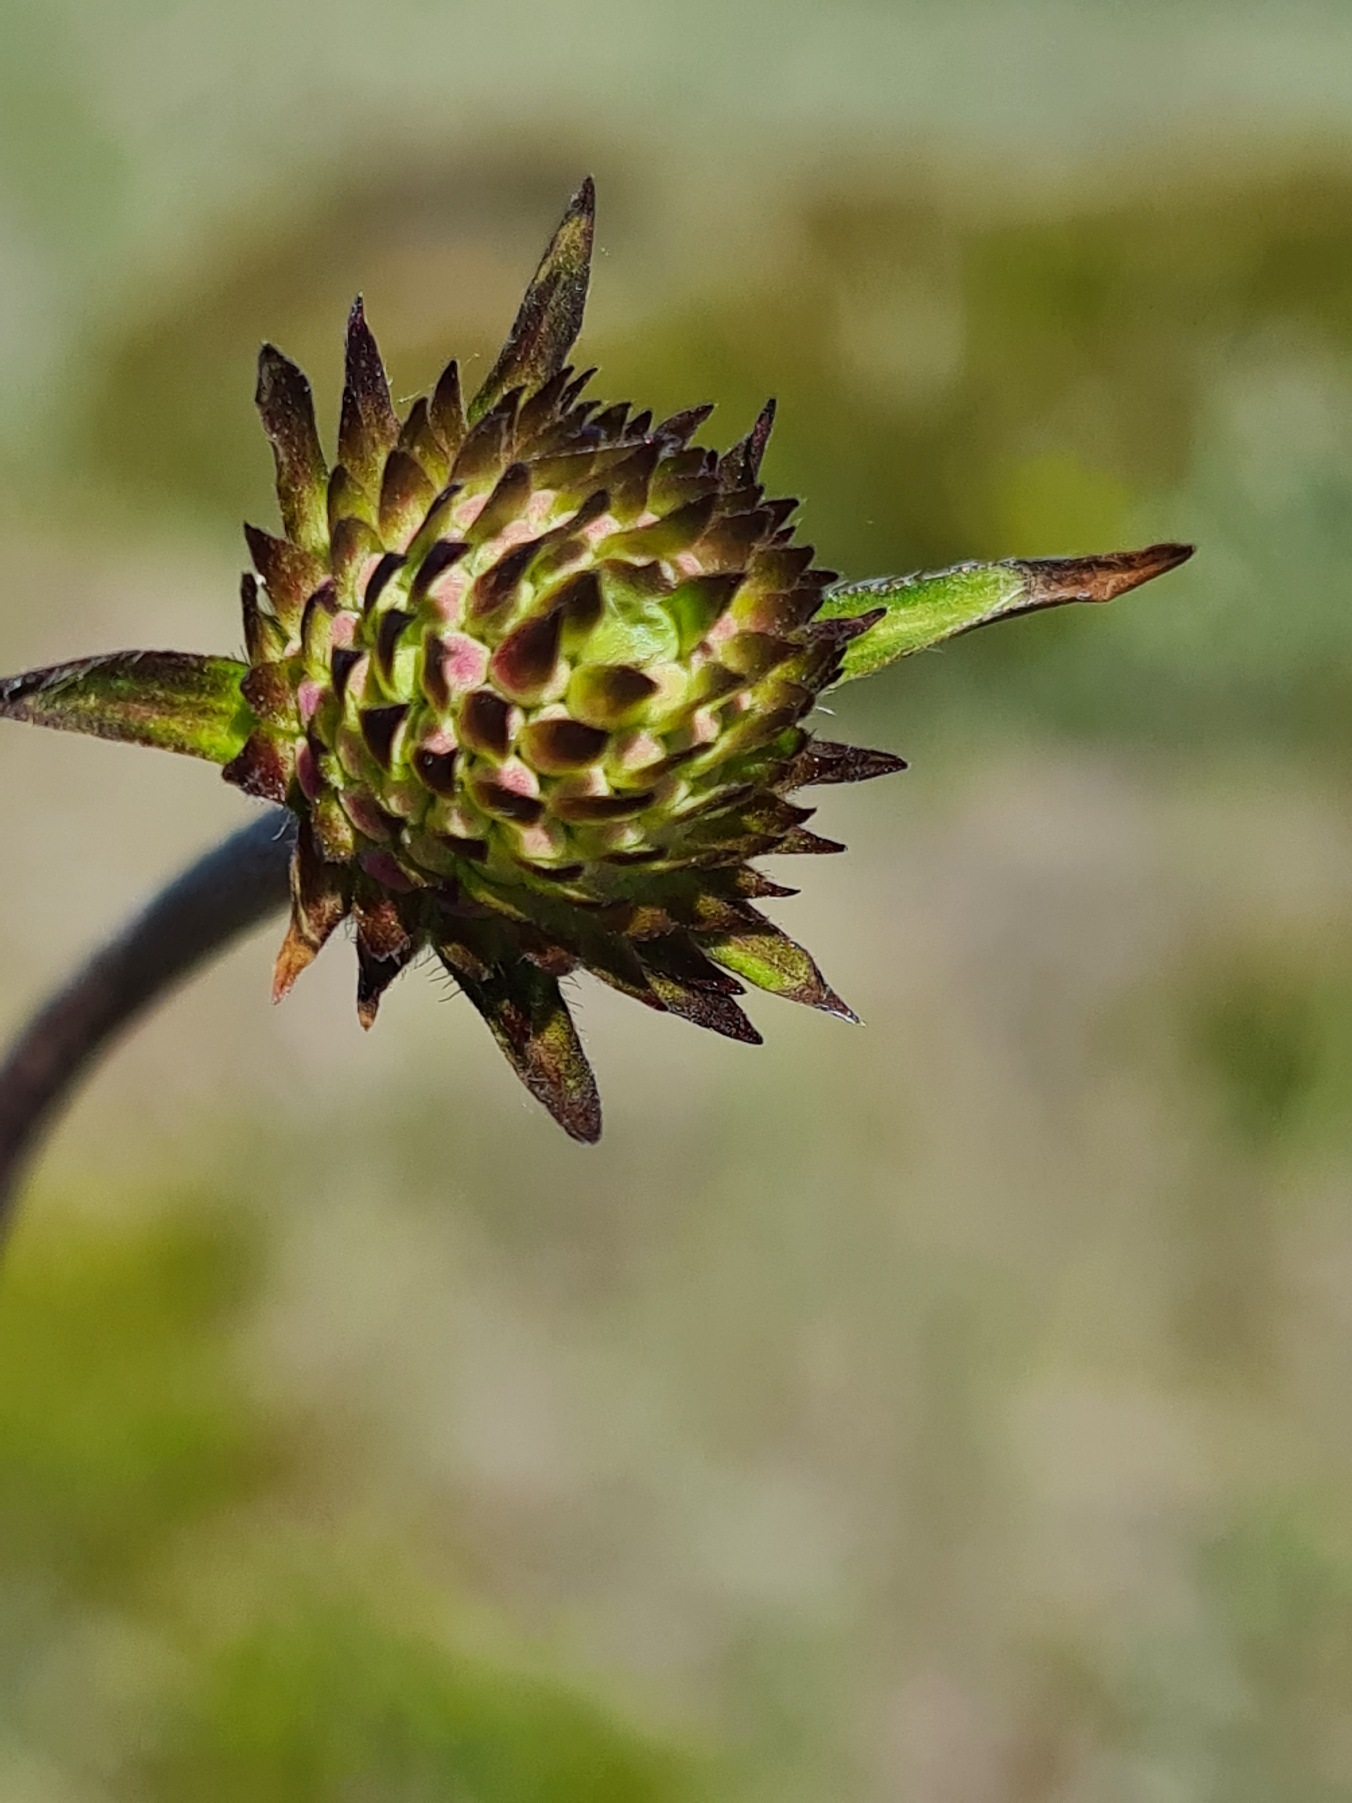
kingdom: Plantae
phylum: Tracheophyta
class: Magnoliopsida
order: Dipsacales
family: Caprifoliaceae
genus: Succisa
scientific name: Succisa pratensis
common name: Djævelsbid
